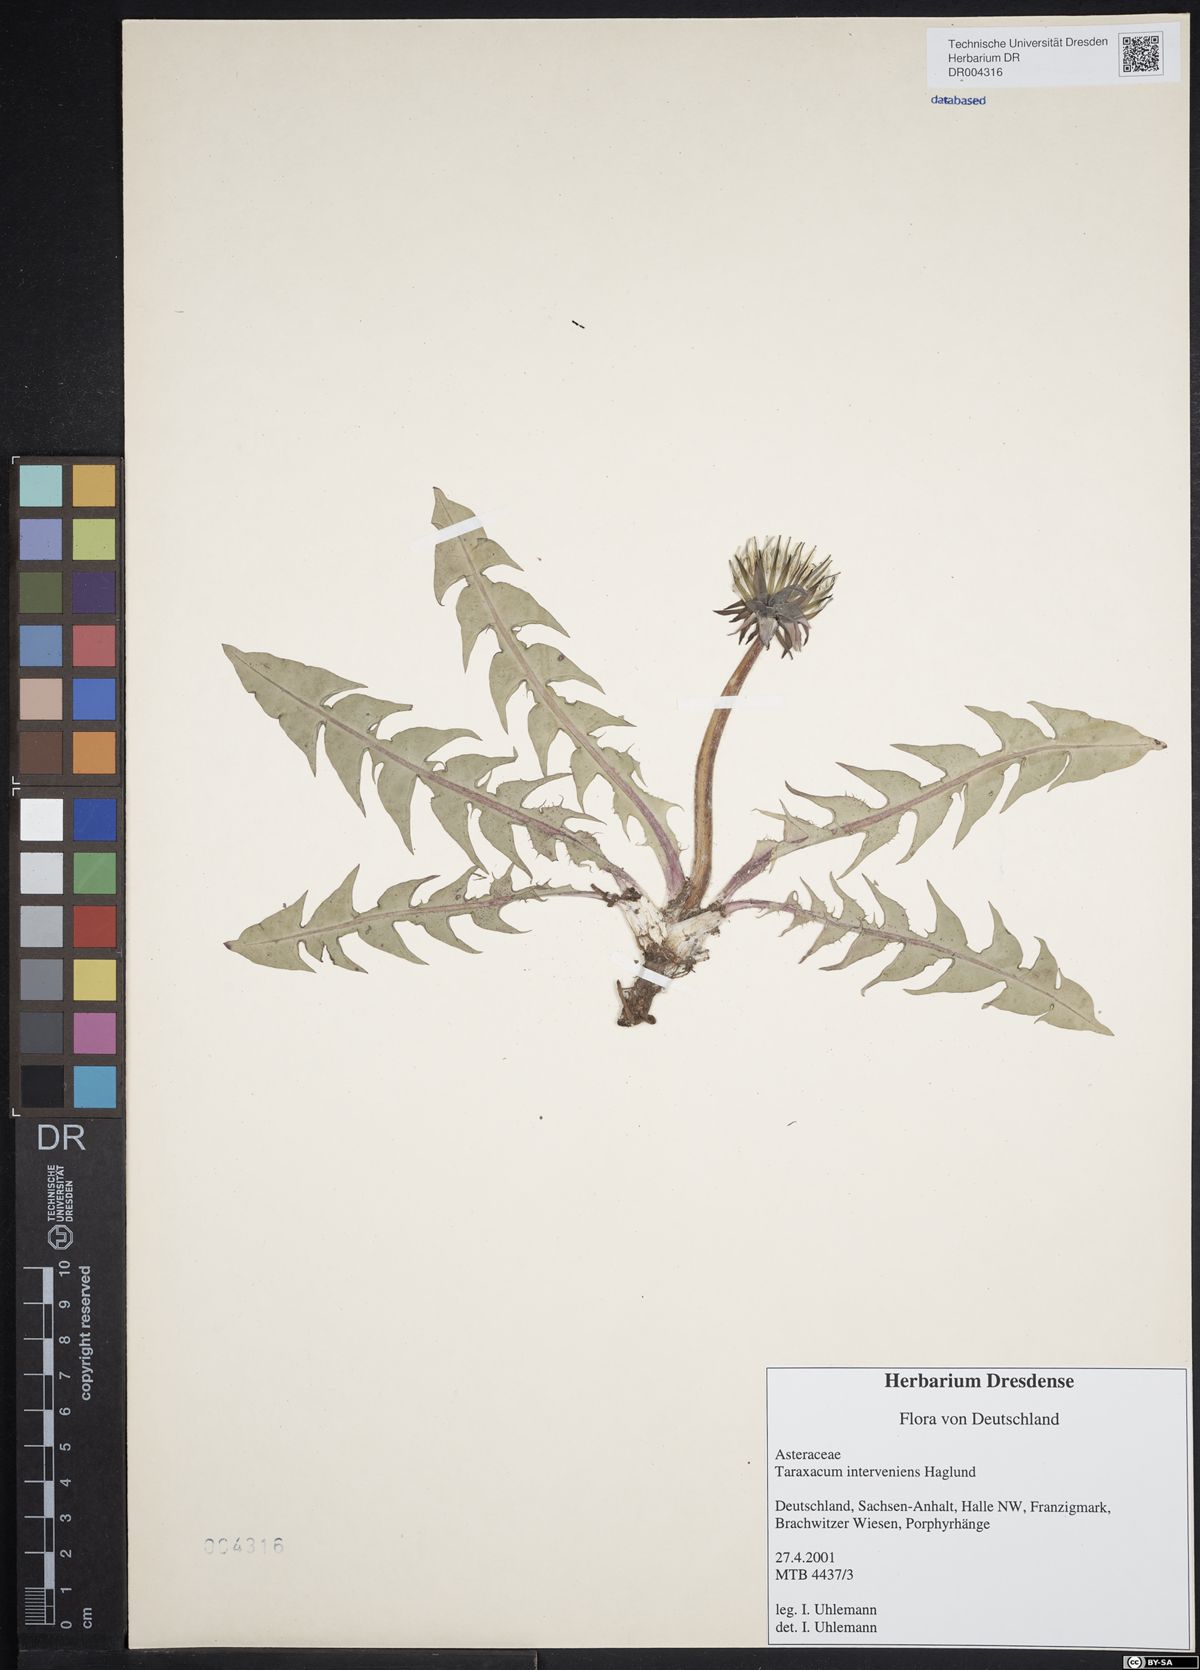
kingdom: Plantae
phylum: Tracheophyta
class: Magnoliopsida
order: Asterales
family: Asteraceae
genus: Taraxacum
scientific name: Taraxacum interveniens
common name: City dandelion
